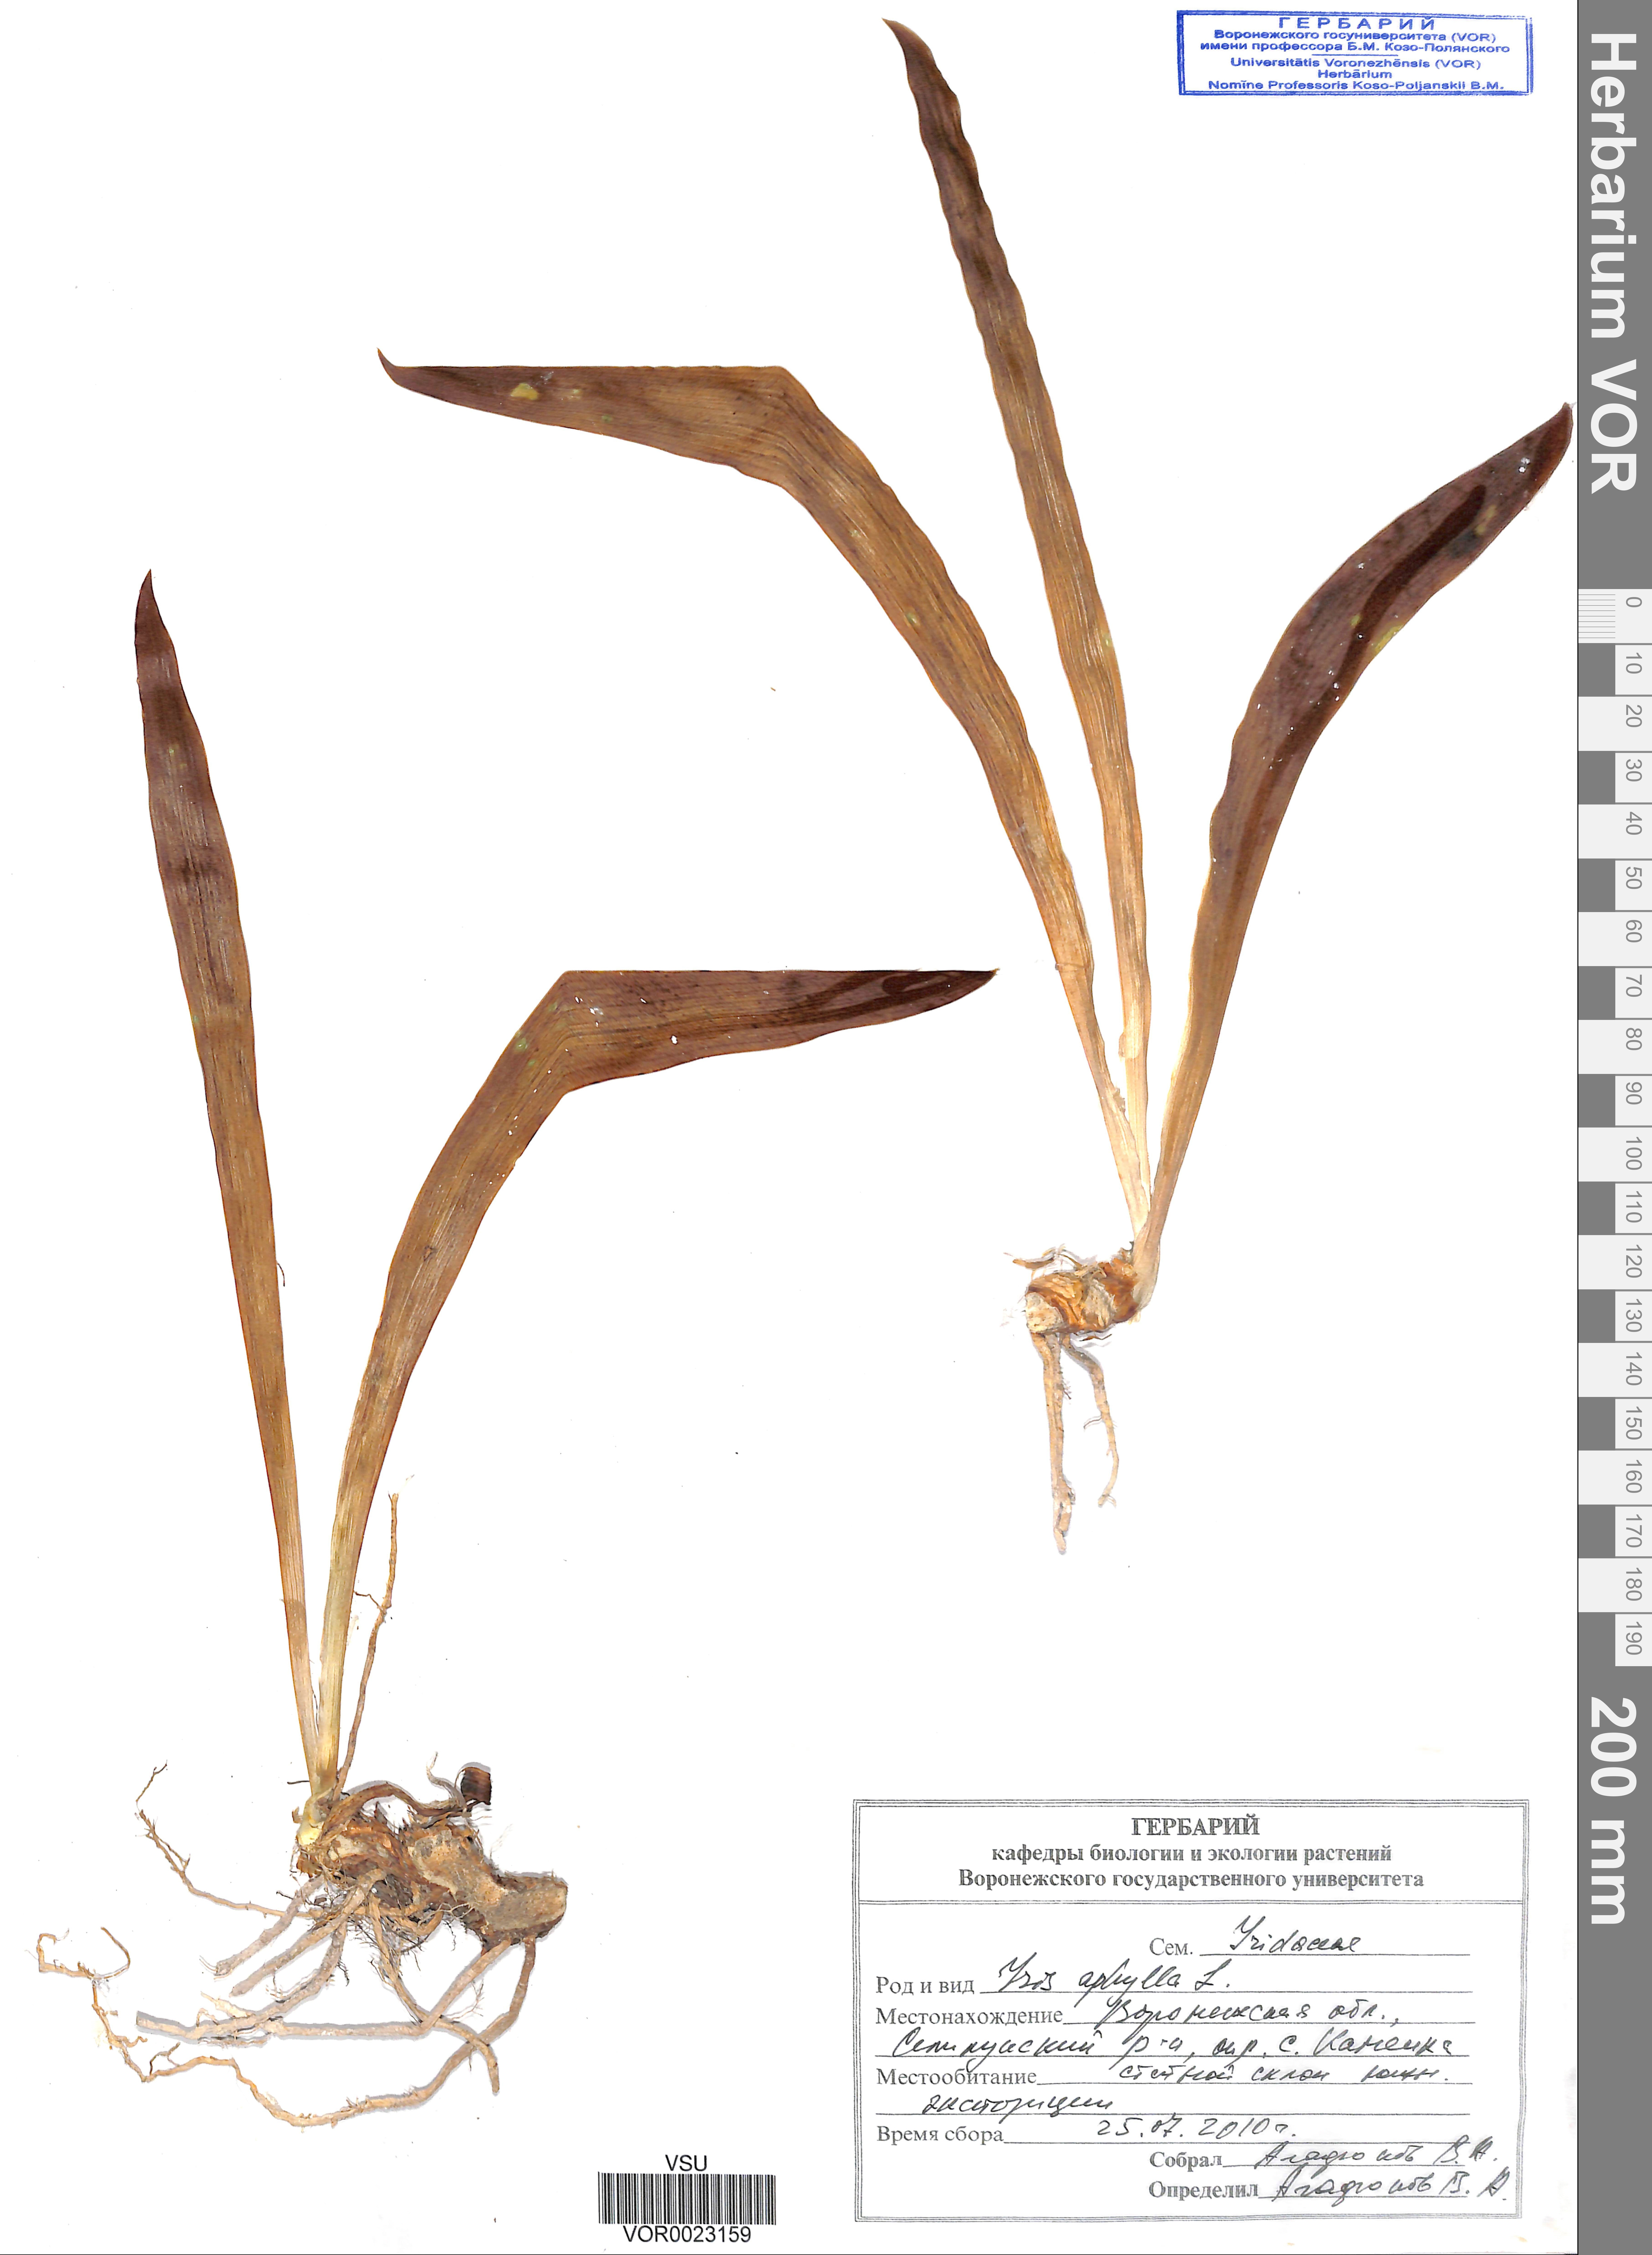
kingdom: Plantae
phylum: Tracheophyta
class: Liliopsida
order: Asparagales
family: Iridaceae
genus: Iris
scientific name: Iris aphylla
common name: Stool iris
